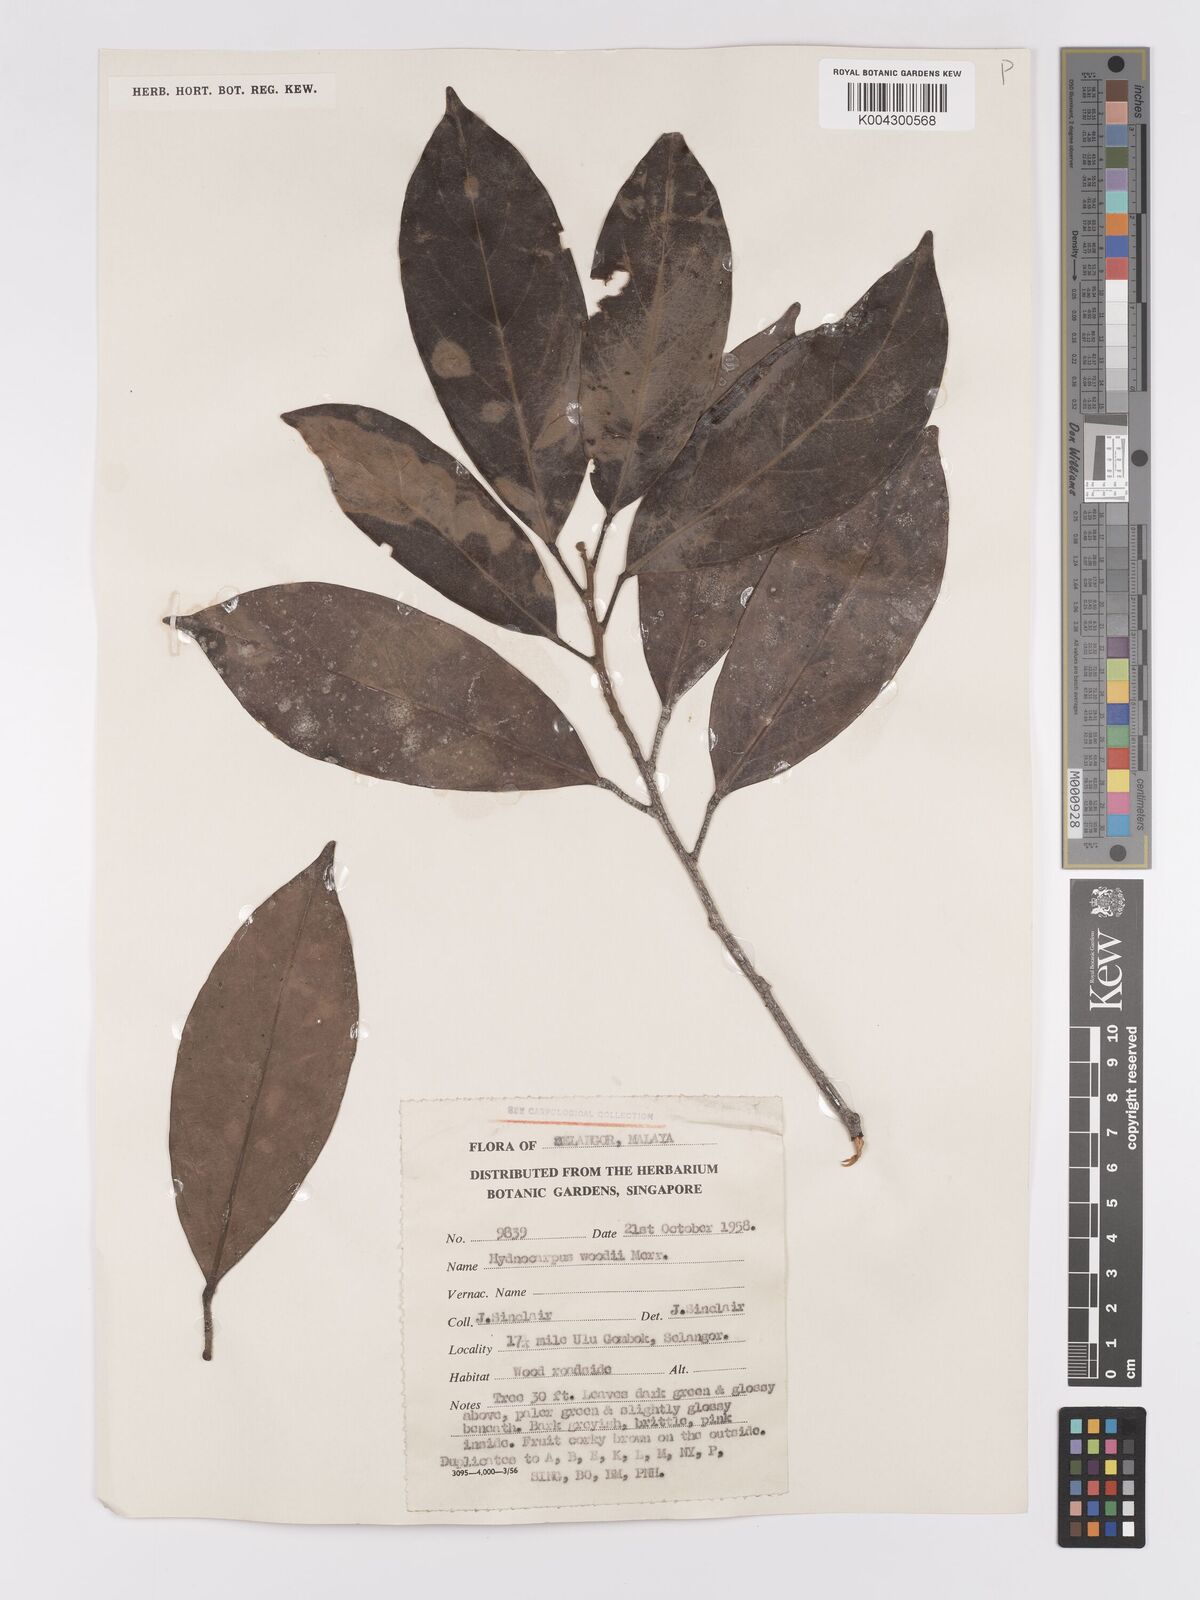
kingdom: Plantae
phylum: Tracheophyta
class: Magnoliopsida
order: Malpighiales
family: Achariaceae
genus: Hydnocarpus
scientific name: Hydnocarpus woodii
